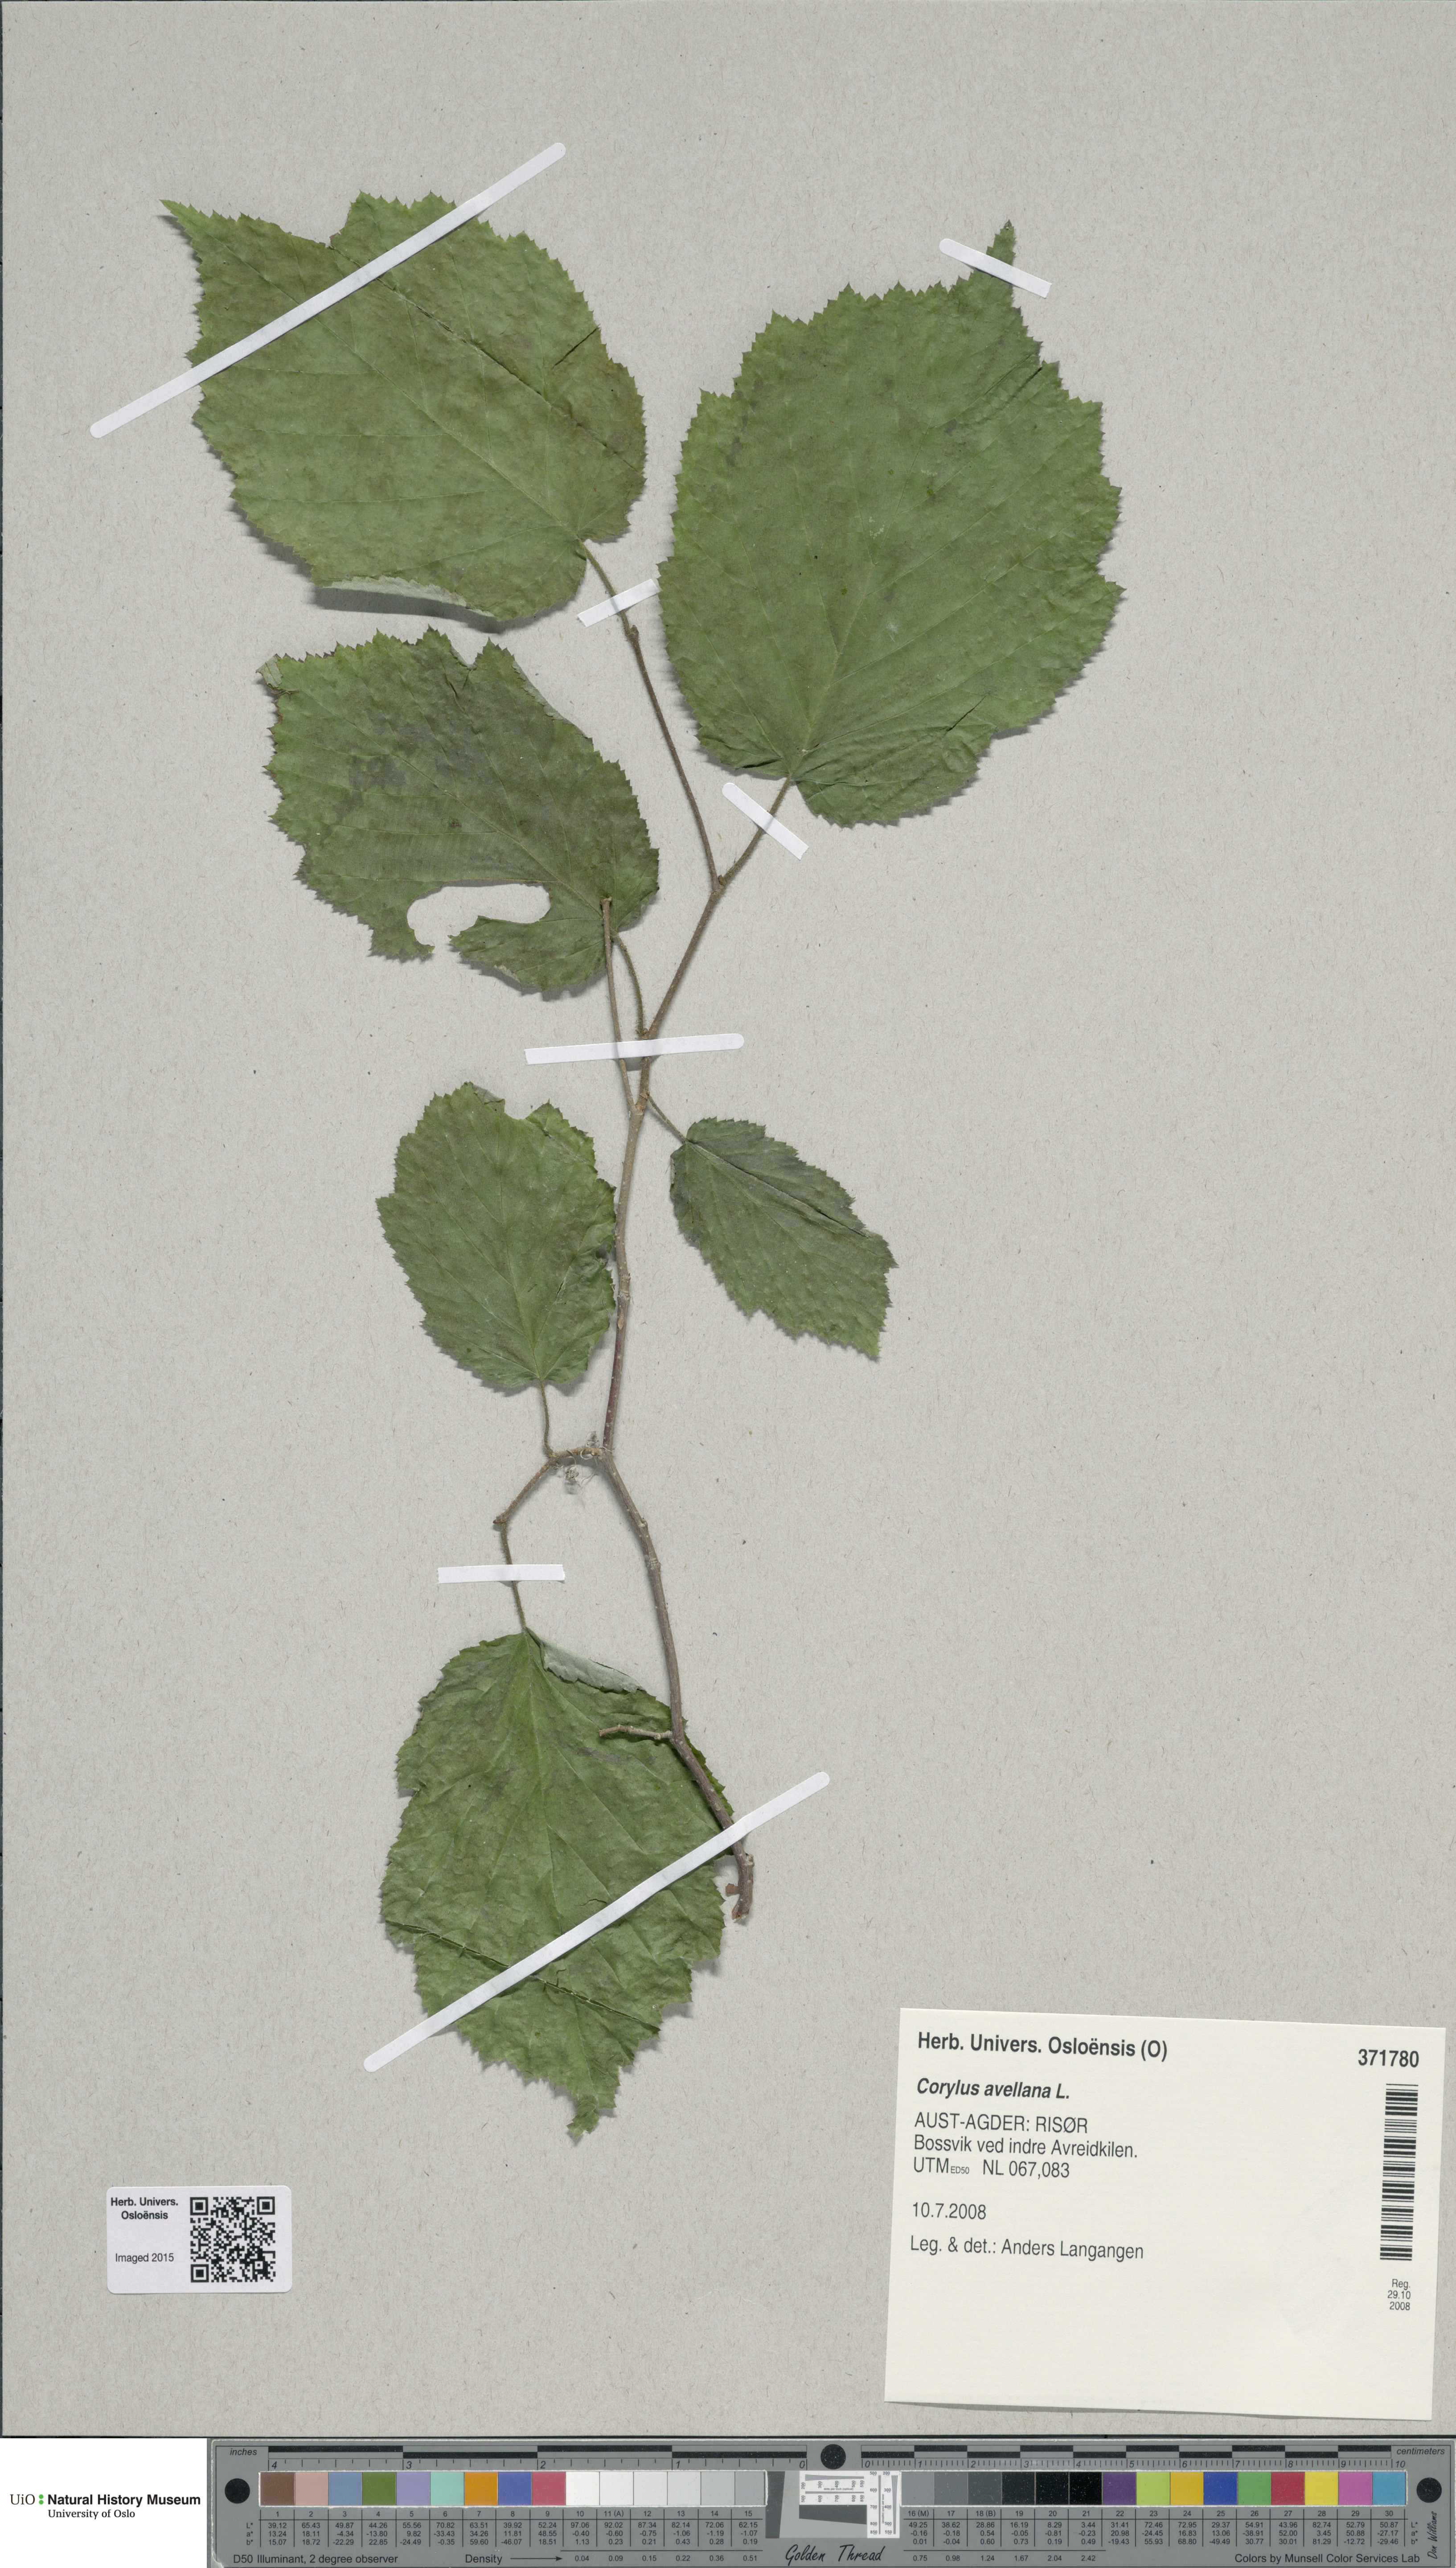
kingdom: Plantae
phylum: Tracheophyta
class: Magnoliopsida
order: Fagales
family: Betulaceae
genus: Corylus
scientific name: Corylus avellana
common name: European hazel
